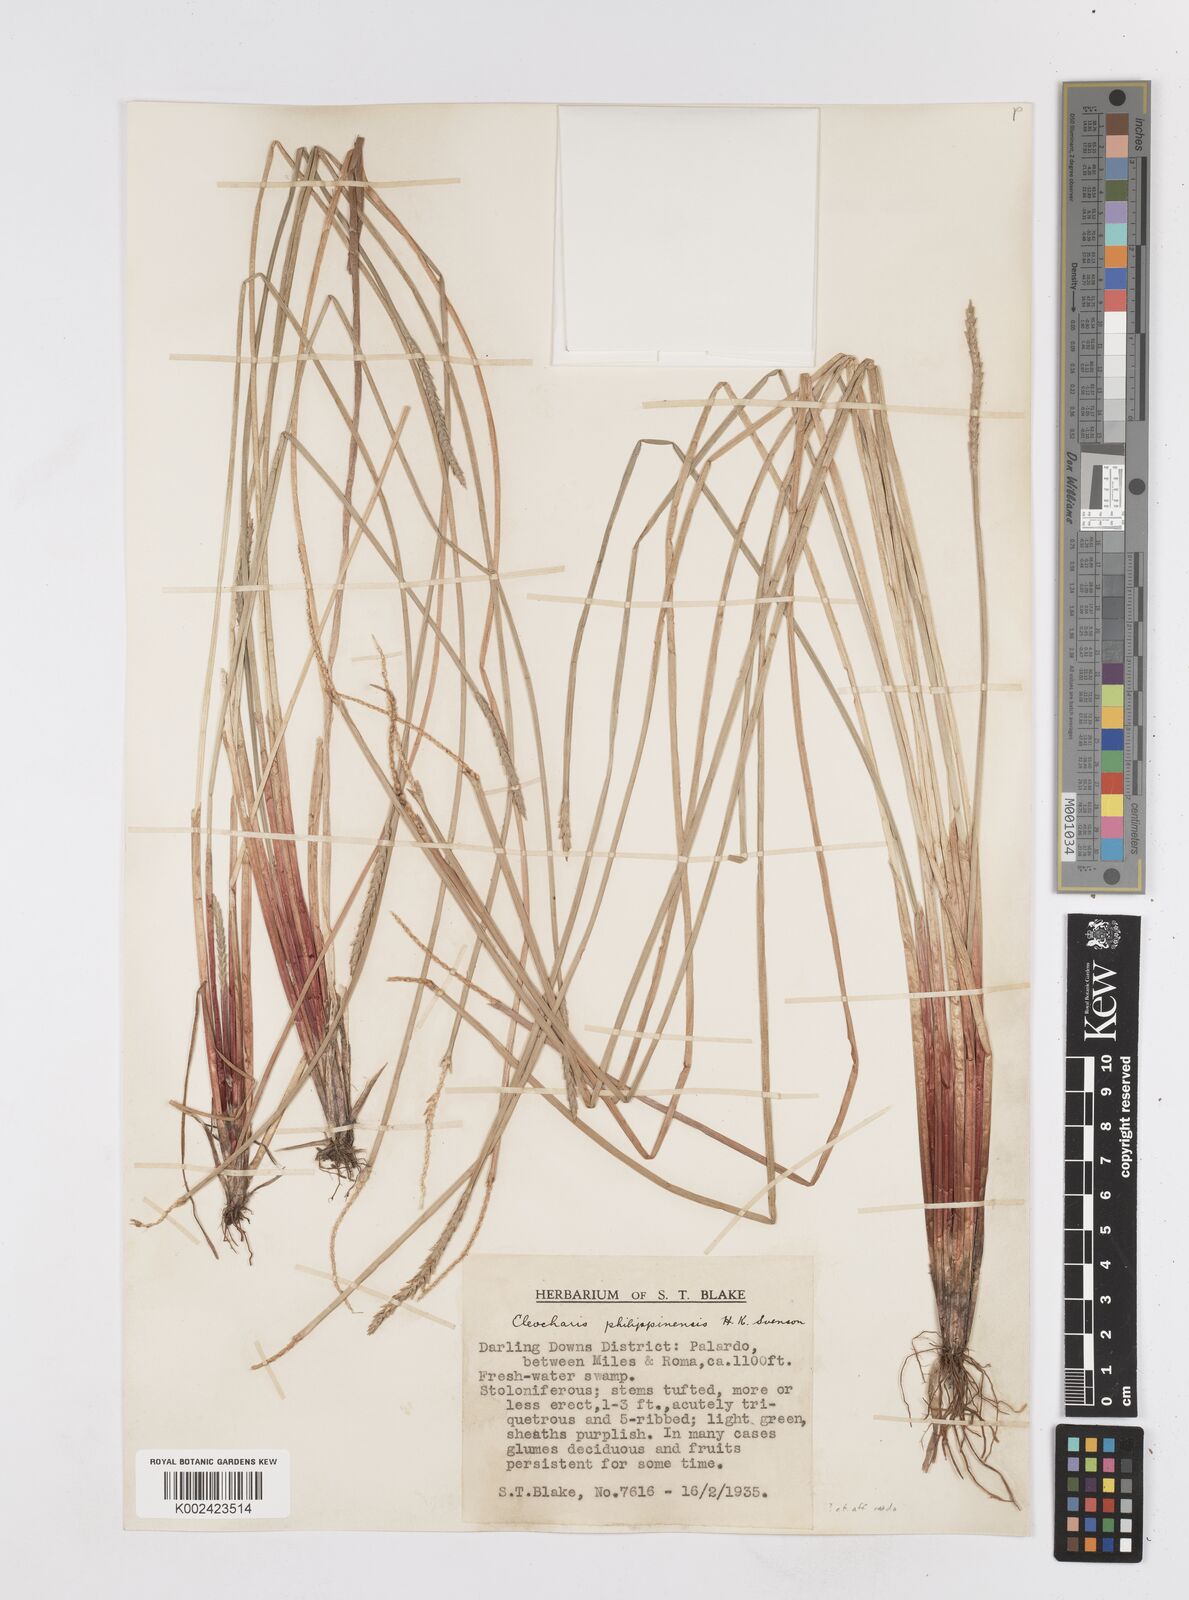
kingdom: Plantae
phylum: Tracheophyta
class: Liliopsida
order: Poales
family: Cyperaceae
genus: Eleocharis
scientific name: Eleocharis
